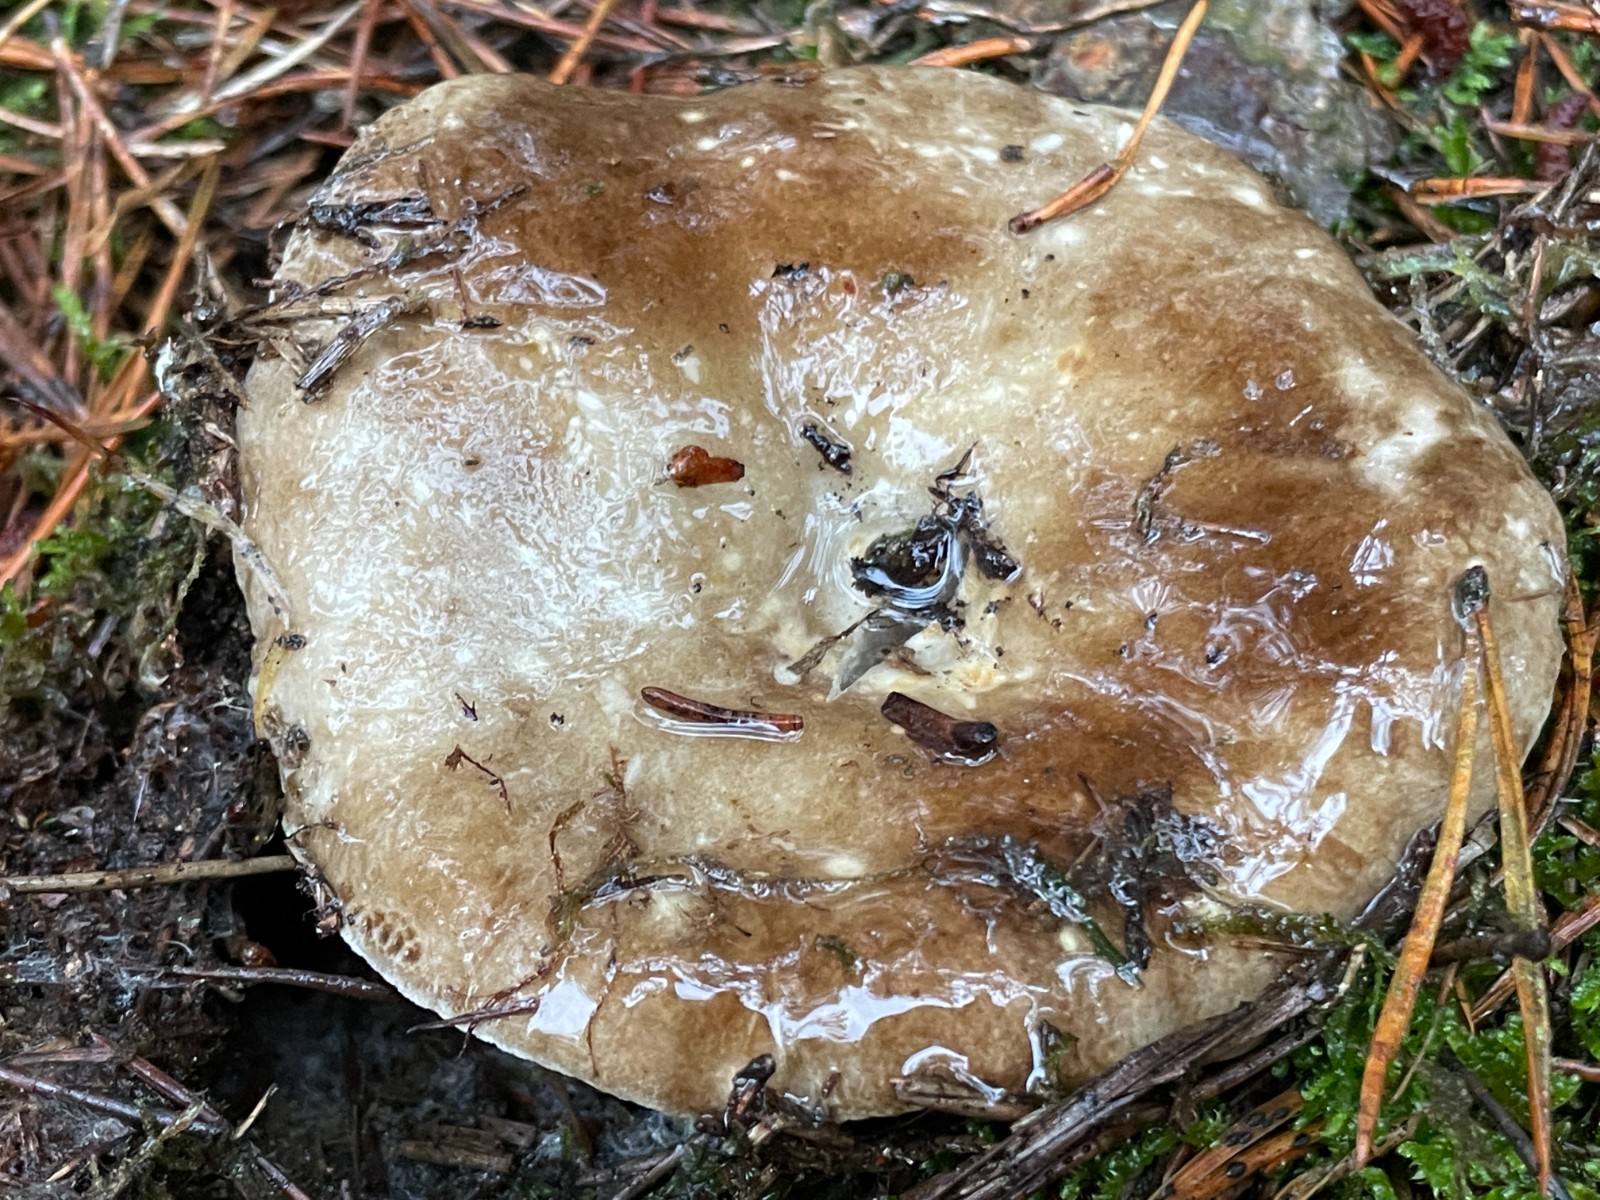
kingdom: Fungi
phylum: Basidiomycota
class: Agaricomycetes
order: Russulales
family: Russulaceae
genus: Russula
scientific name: Russula adusta
